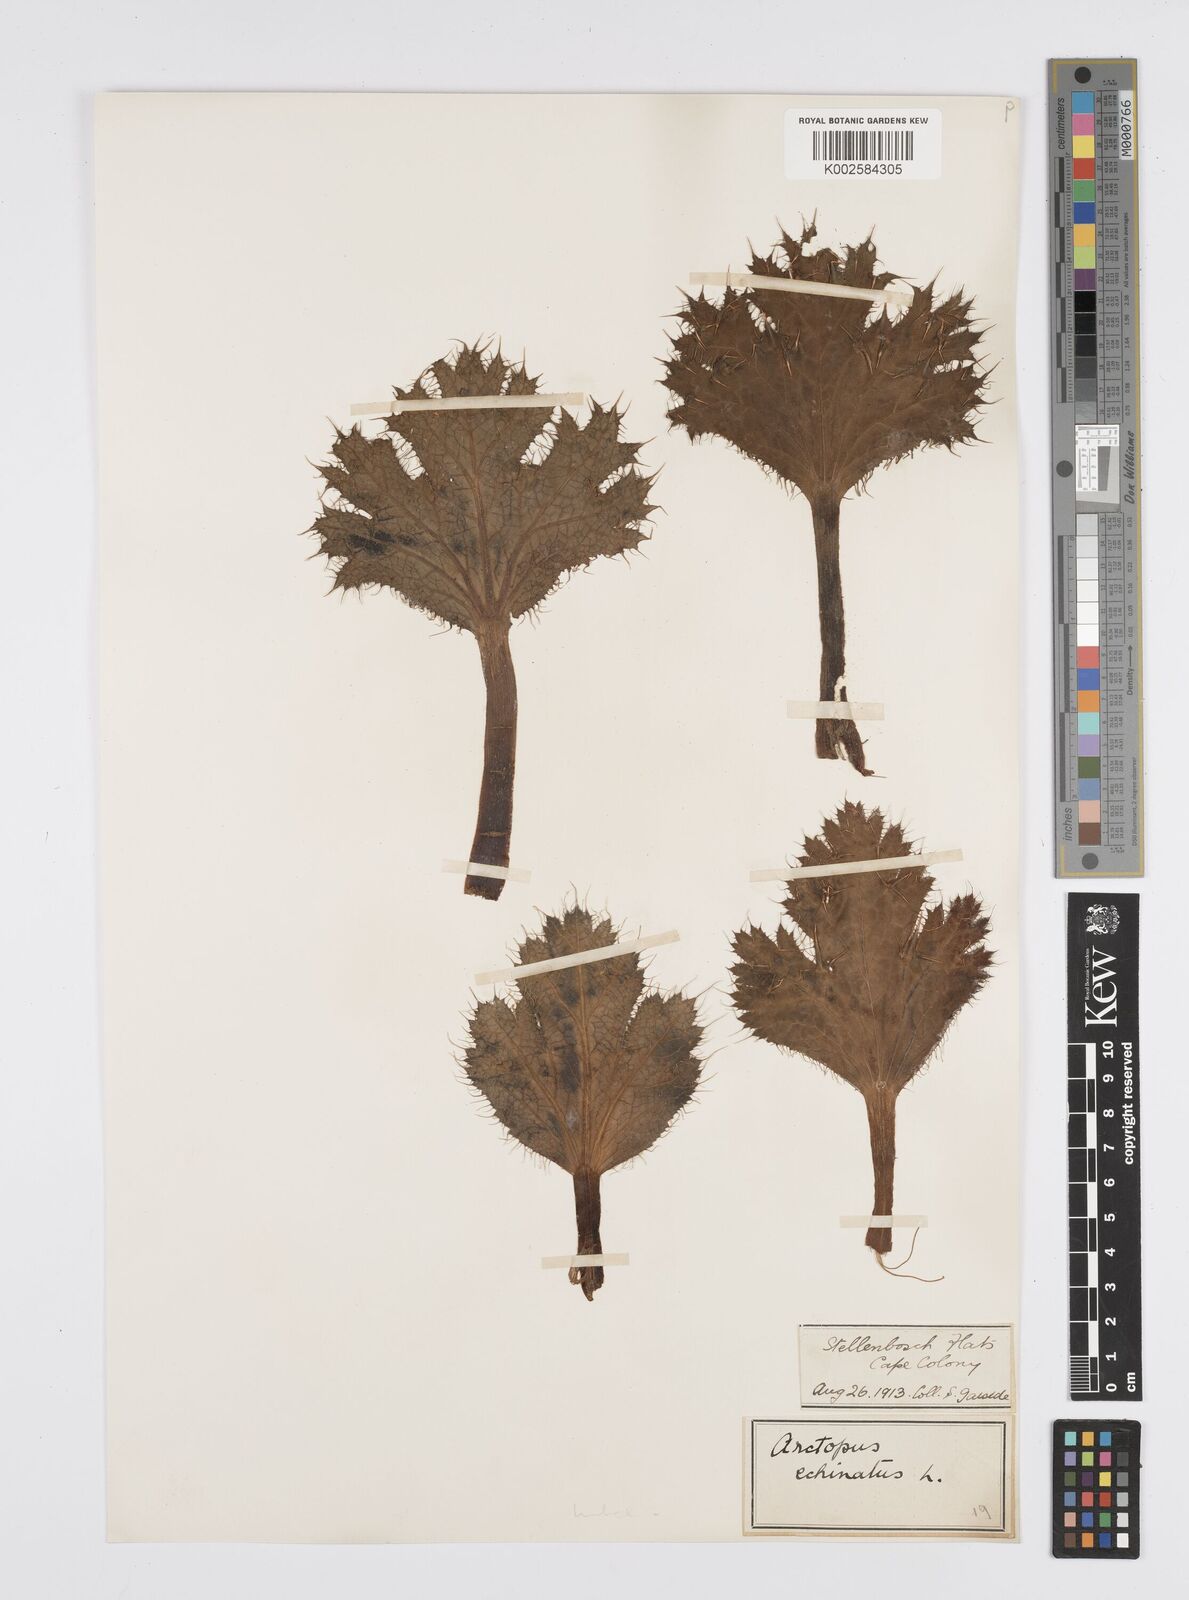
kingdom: Plantae
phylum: Tracheophyta
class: Magnoliopsida
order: Apiales
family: Apiaceae
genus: Arctopus
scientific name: Arctopus echinatus
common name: Platdoring
